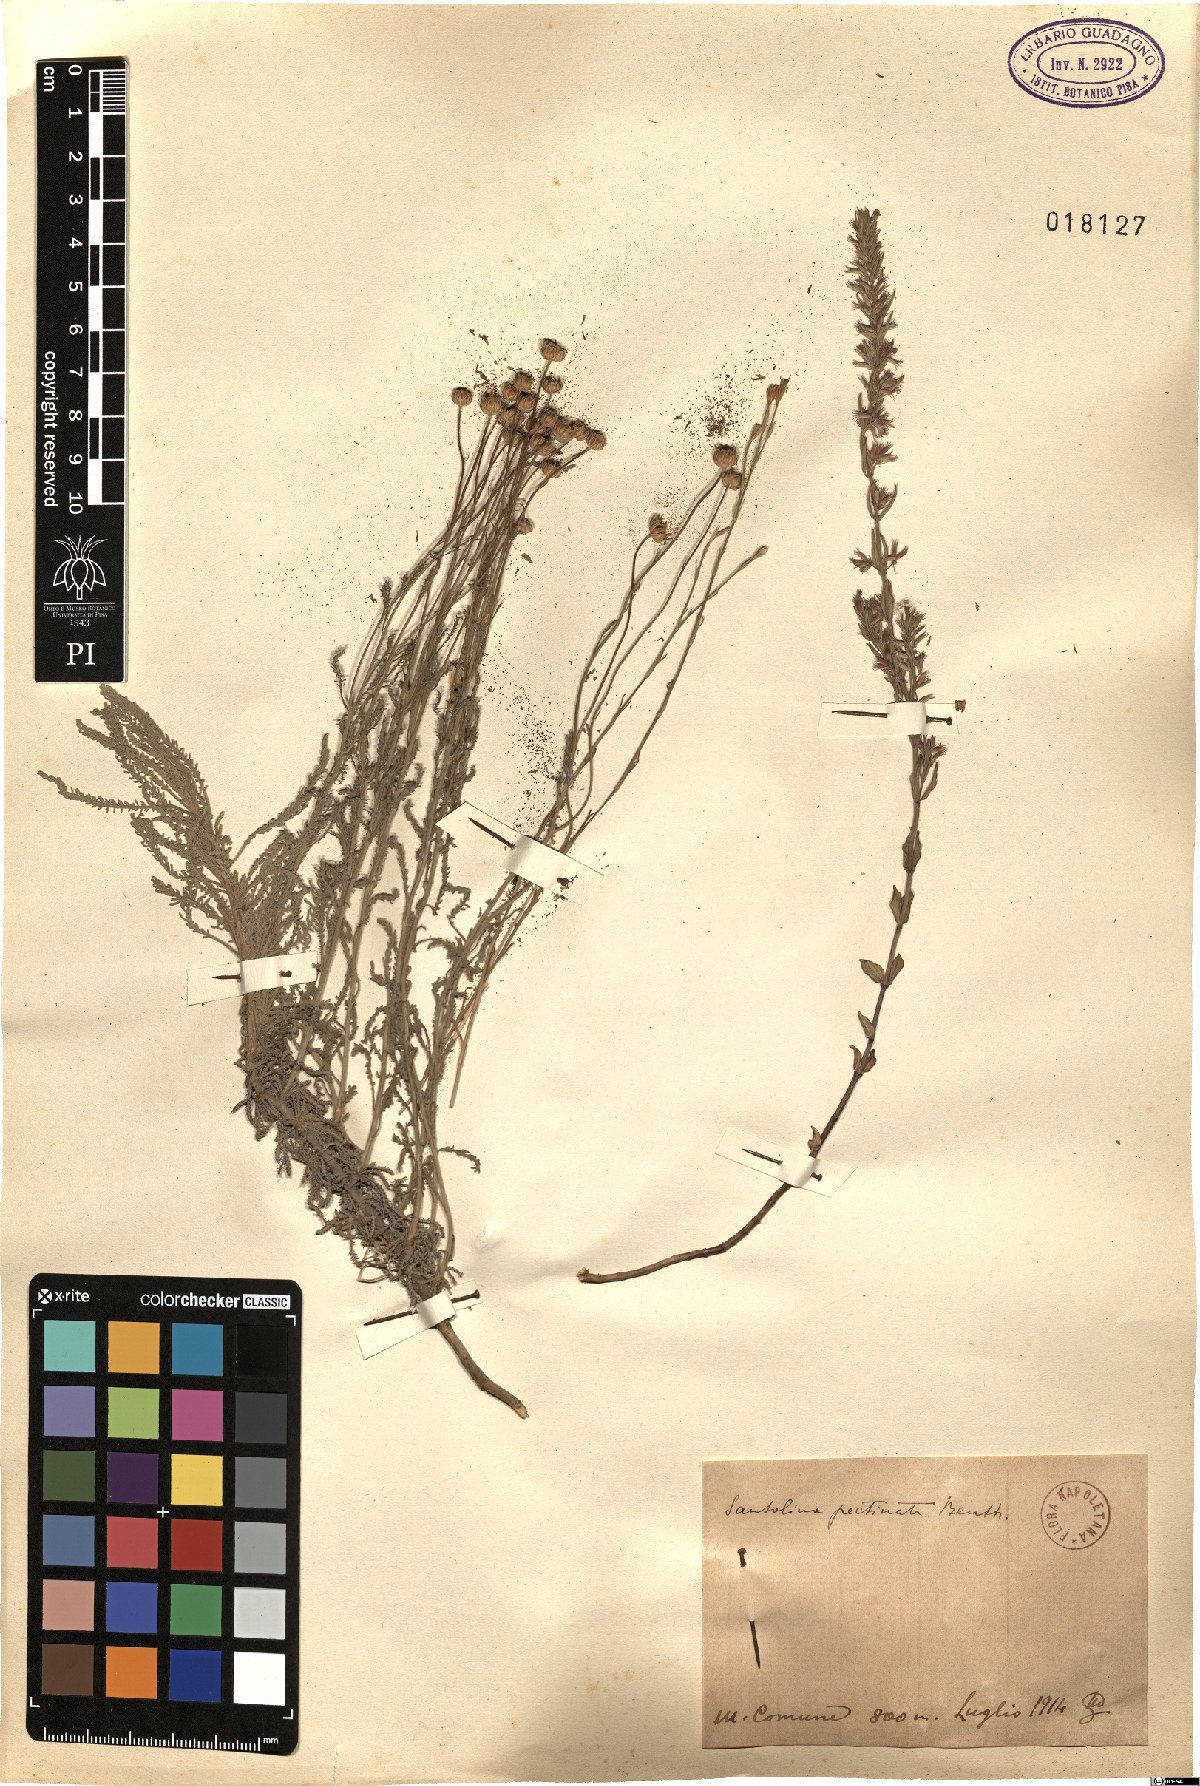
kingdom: Plantae
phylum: Tracheophyta
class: Magnoliopsida
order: Asterales
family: Asteraceae
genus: Santolina
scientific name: Santolina pectinata
